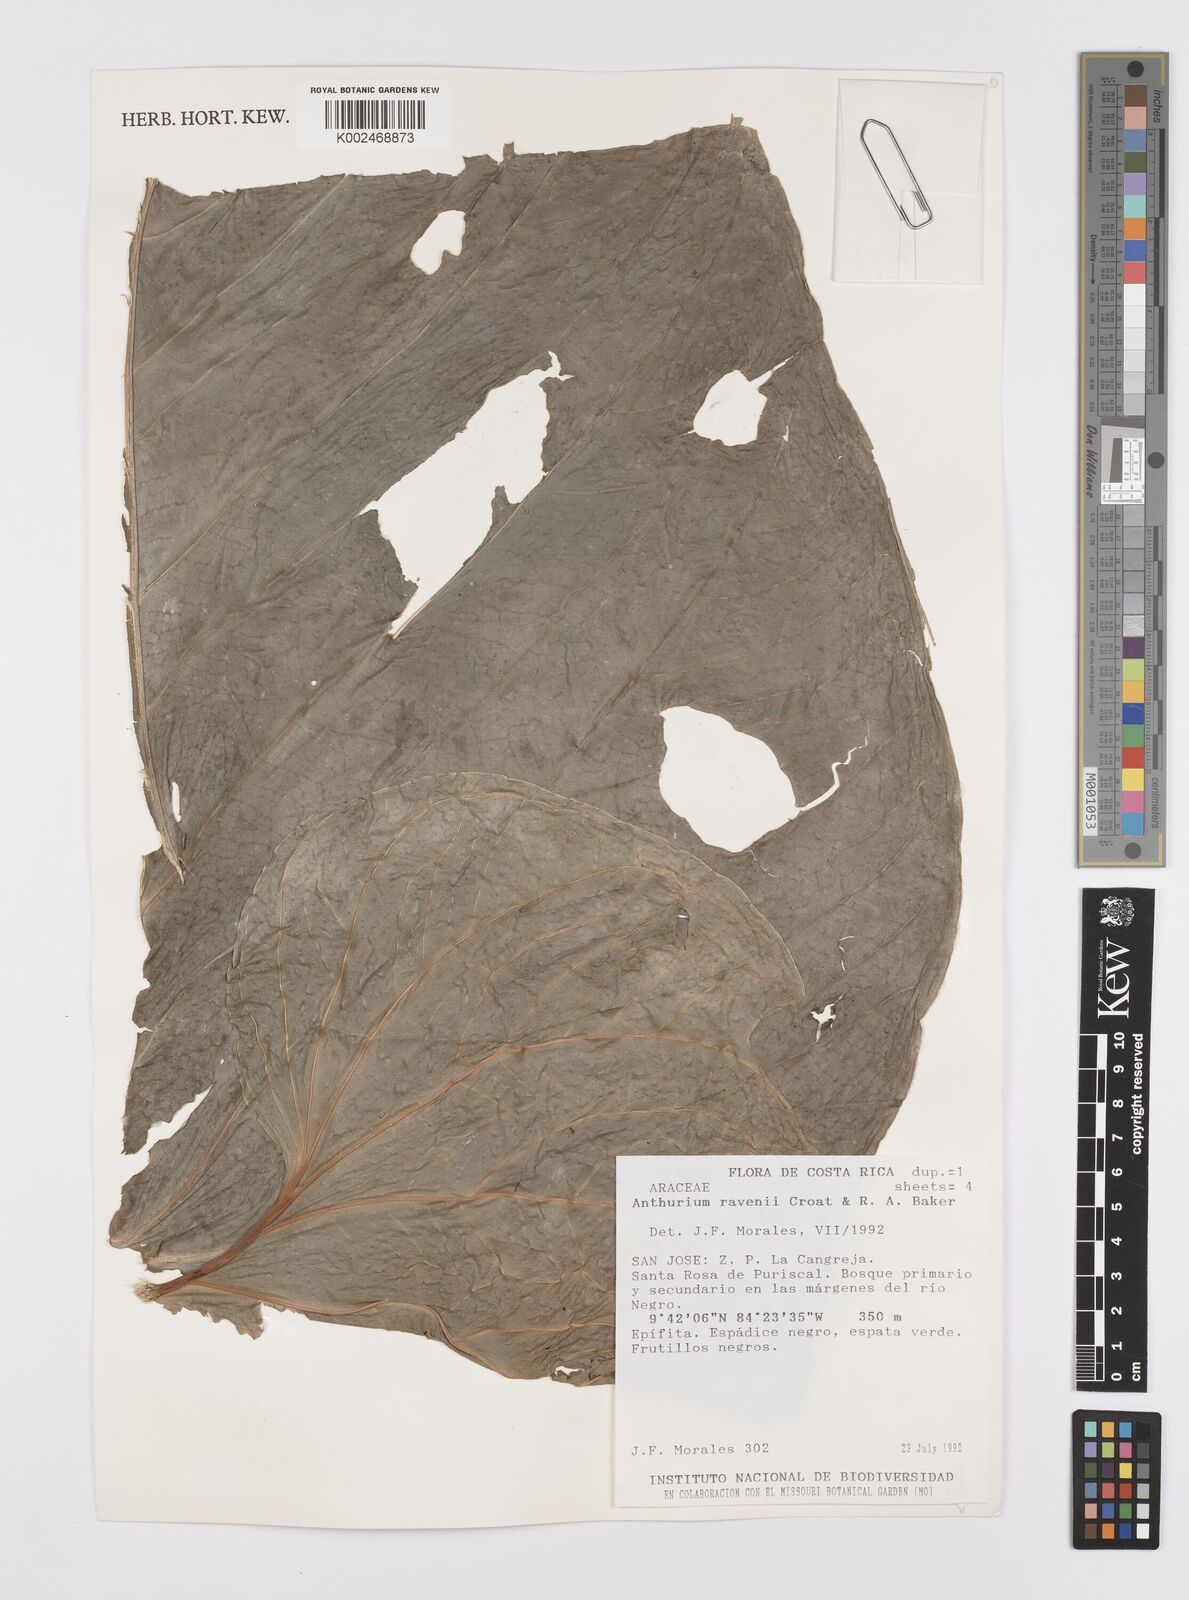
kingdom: Plantae
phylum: Tracheophyta
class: Liliopsida
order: Alismatales
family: Araceae
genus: Anthurium
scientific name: Anthurium ravenii
